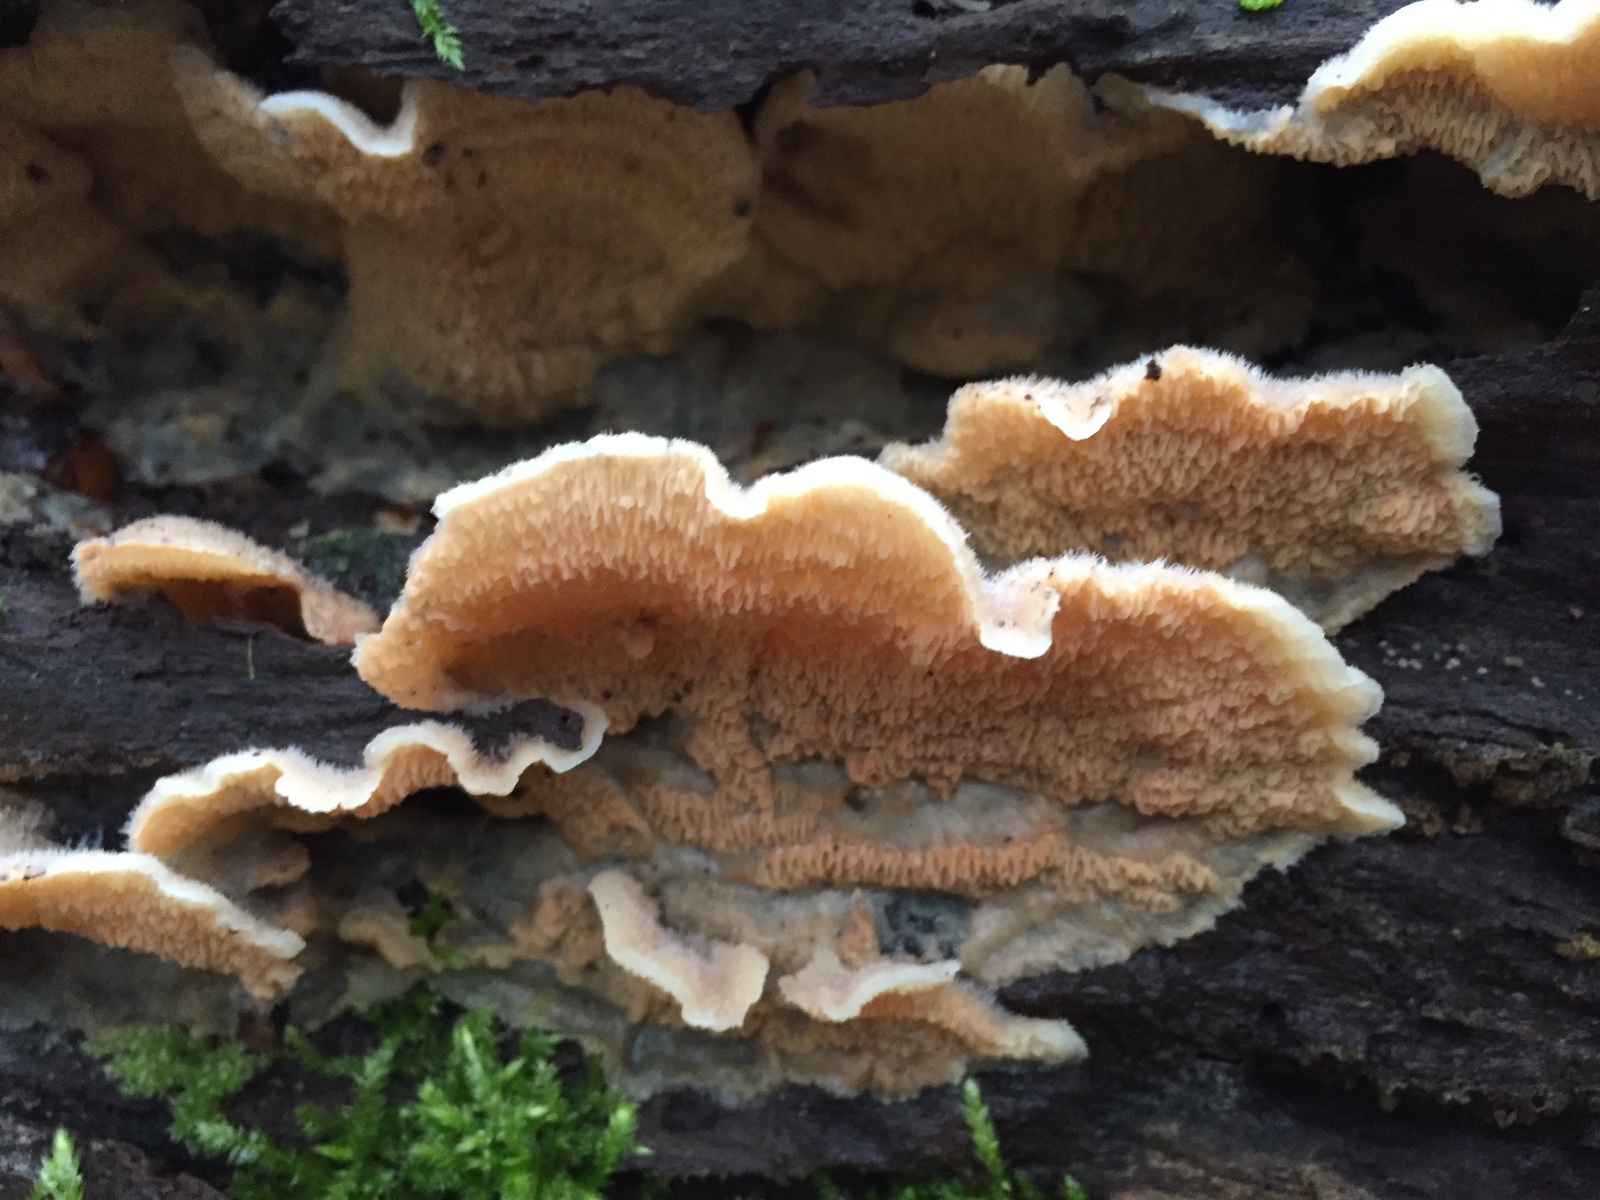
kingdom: Fungi
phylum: Basidiomycota
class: Agaricomycetes
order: Polyporales
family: Meruliaceae
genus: Phlebia
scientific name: Phlebia tremellosa
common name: bævrende åresvamp
